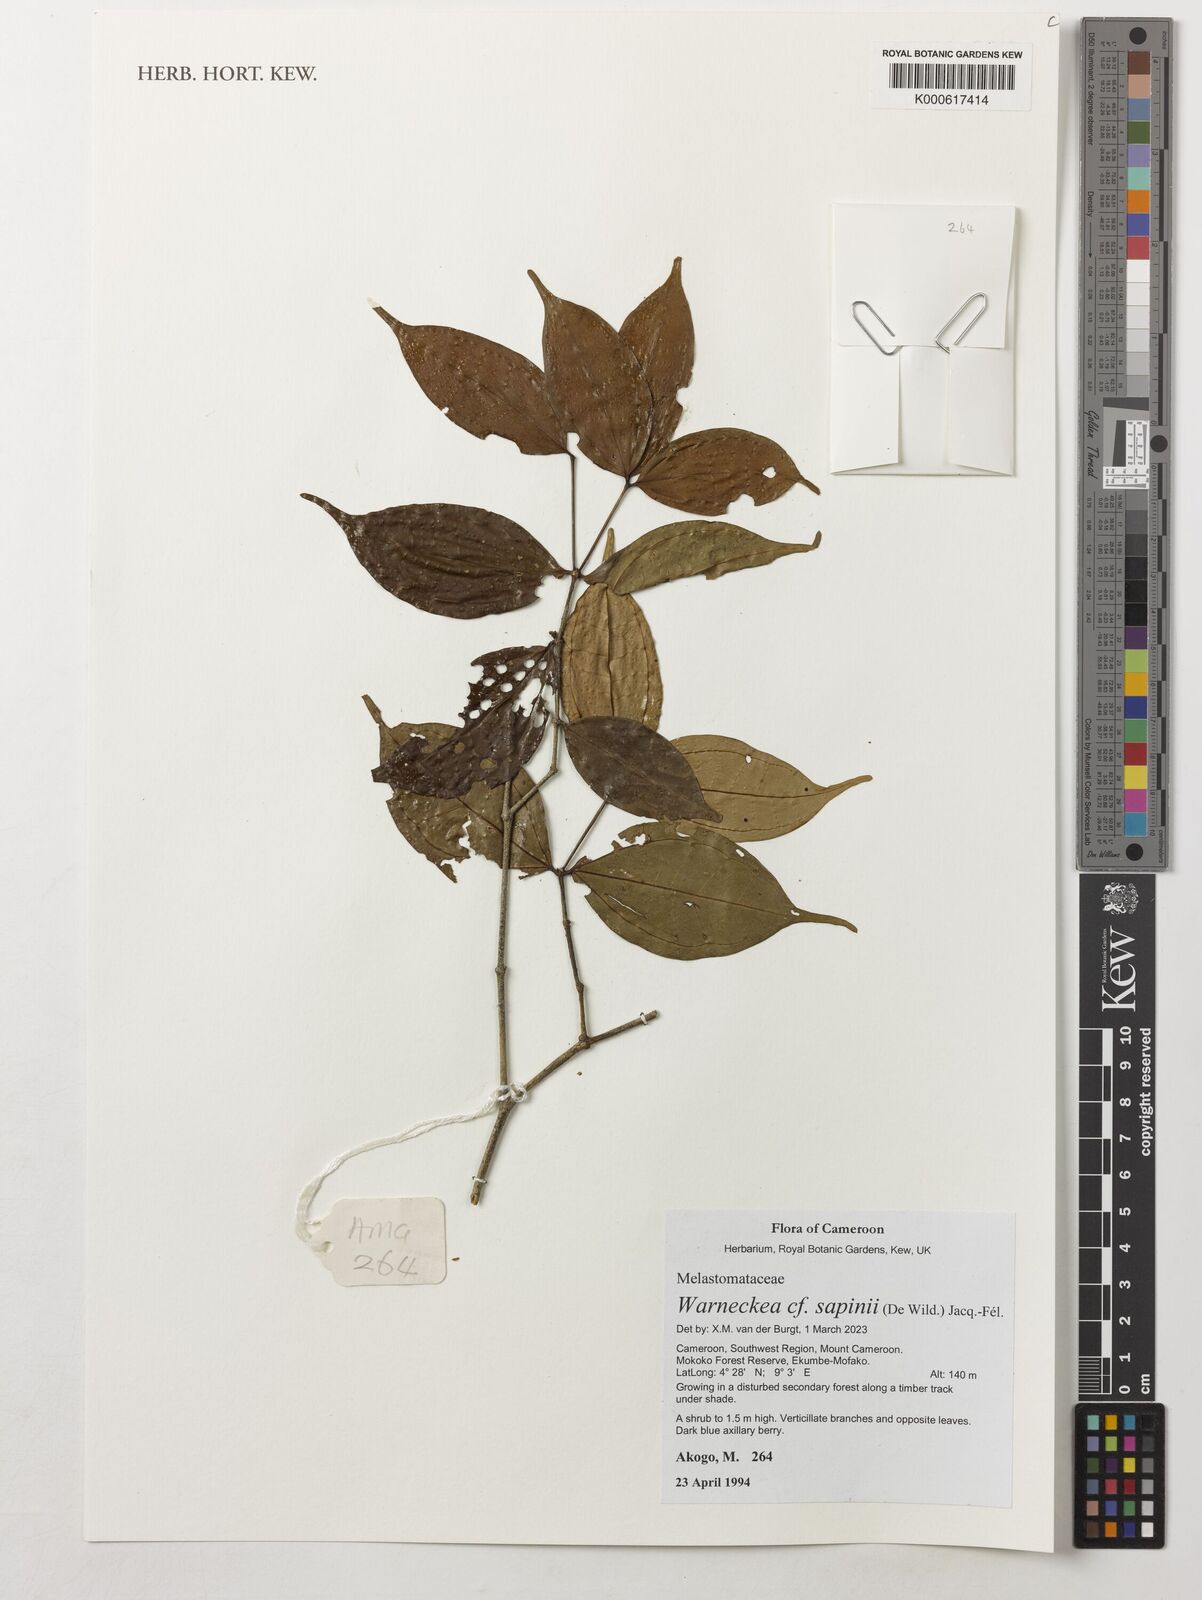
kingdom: Plantae
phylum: Tracheophyta
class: Magnoliopsida
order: Myrtales
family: Melastomataceae
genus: Warneckea
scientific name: Warneckea sapinii
